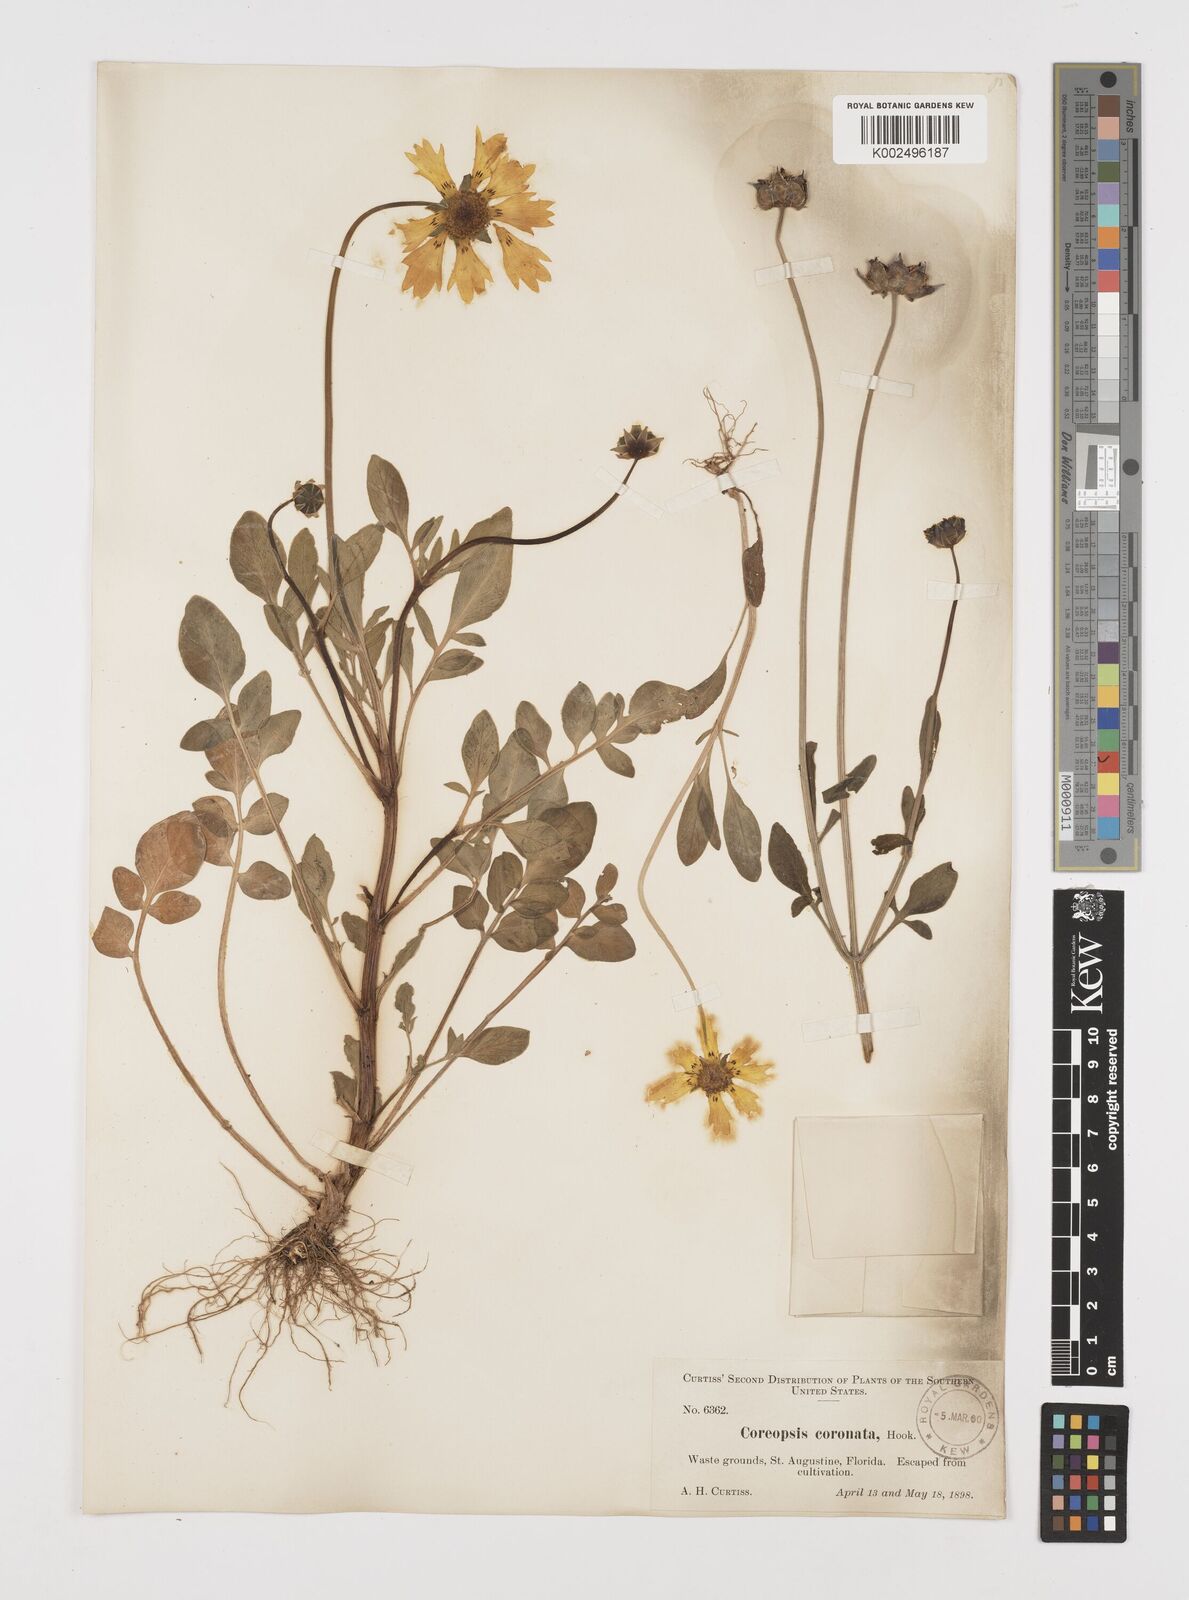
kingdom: Plantae
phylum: Tracheophyta
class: Magnoliopsida
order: Asterales
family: Asteraceae
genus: Coreopsis
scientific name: Coreopsis nuecensis
